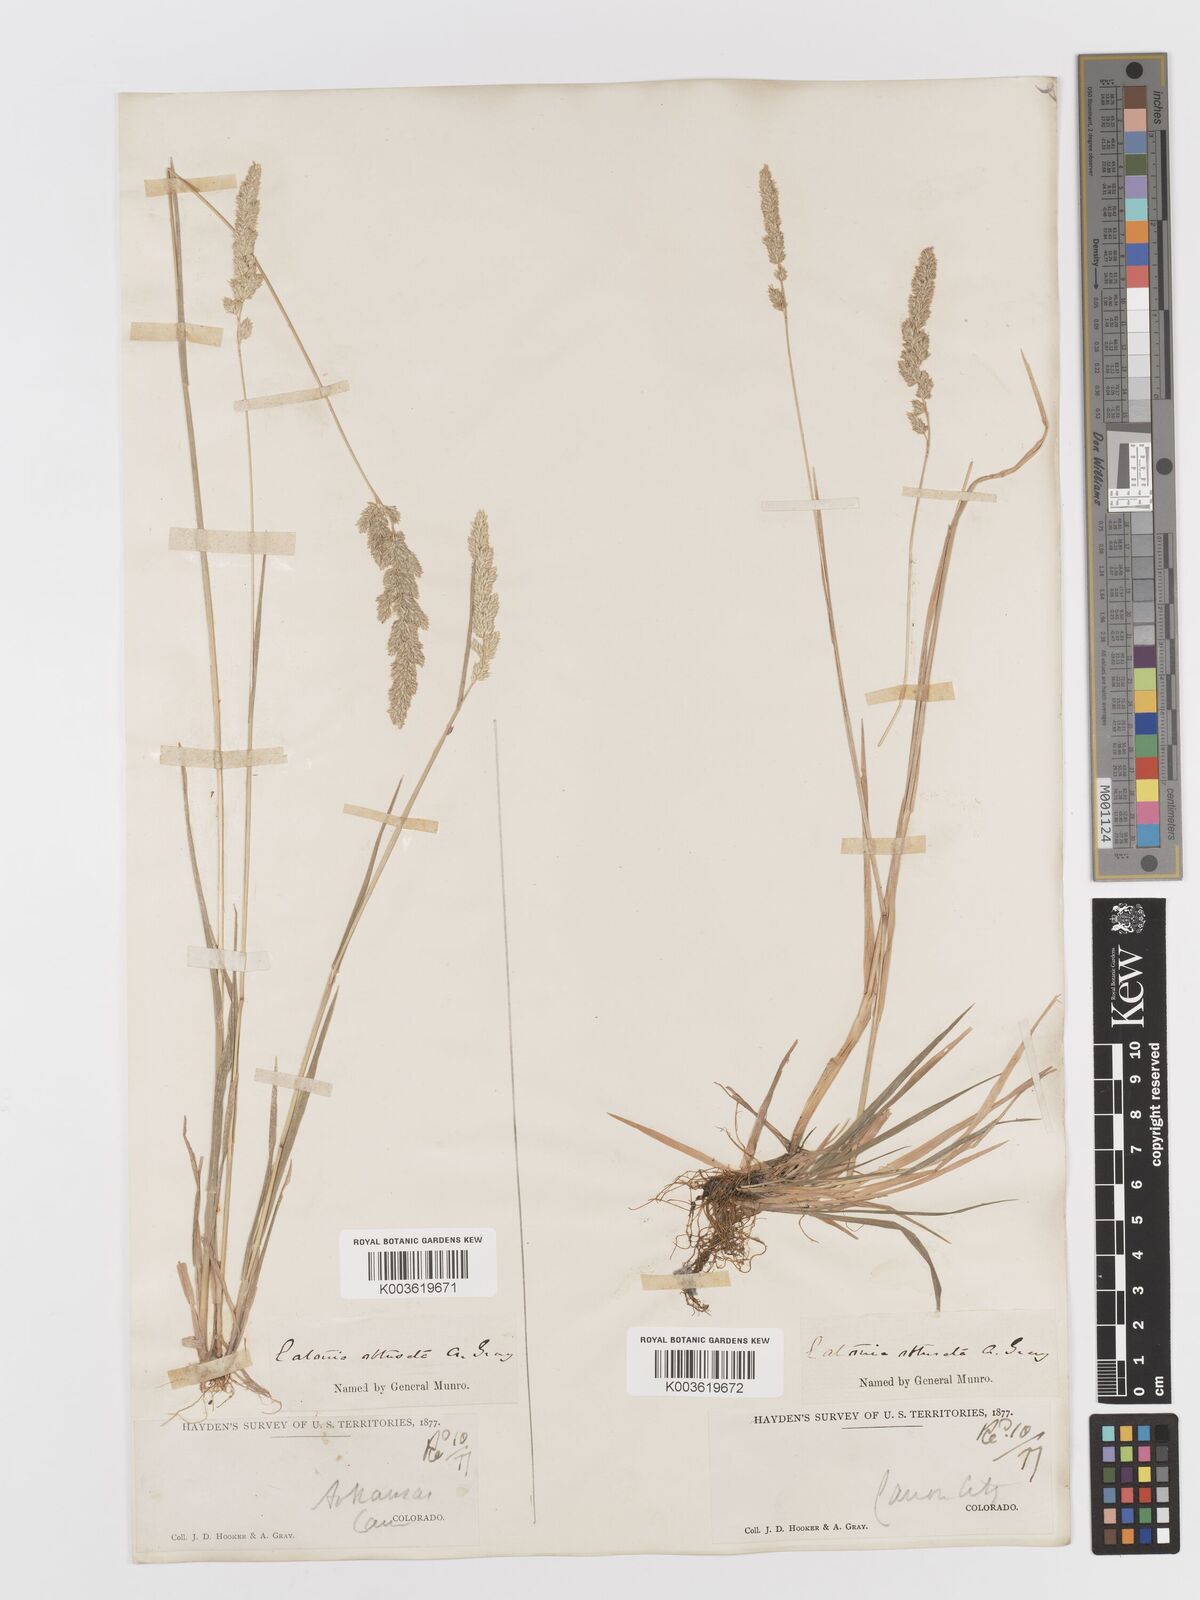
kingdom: Plantae
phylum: Tracheophyta
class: Liliopsida
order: Poales
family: Poaceae
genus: Sphenopholis
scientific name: Sphenopholis obtusata
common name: Prairie grass
